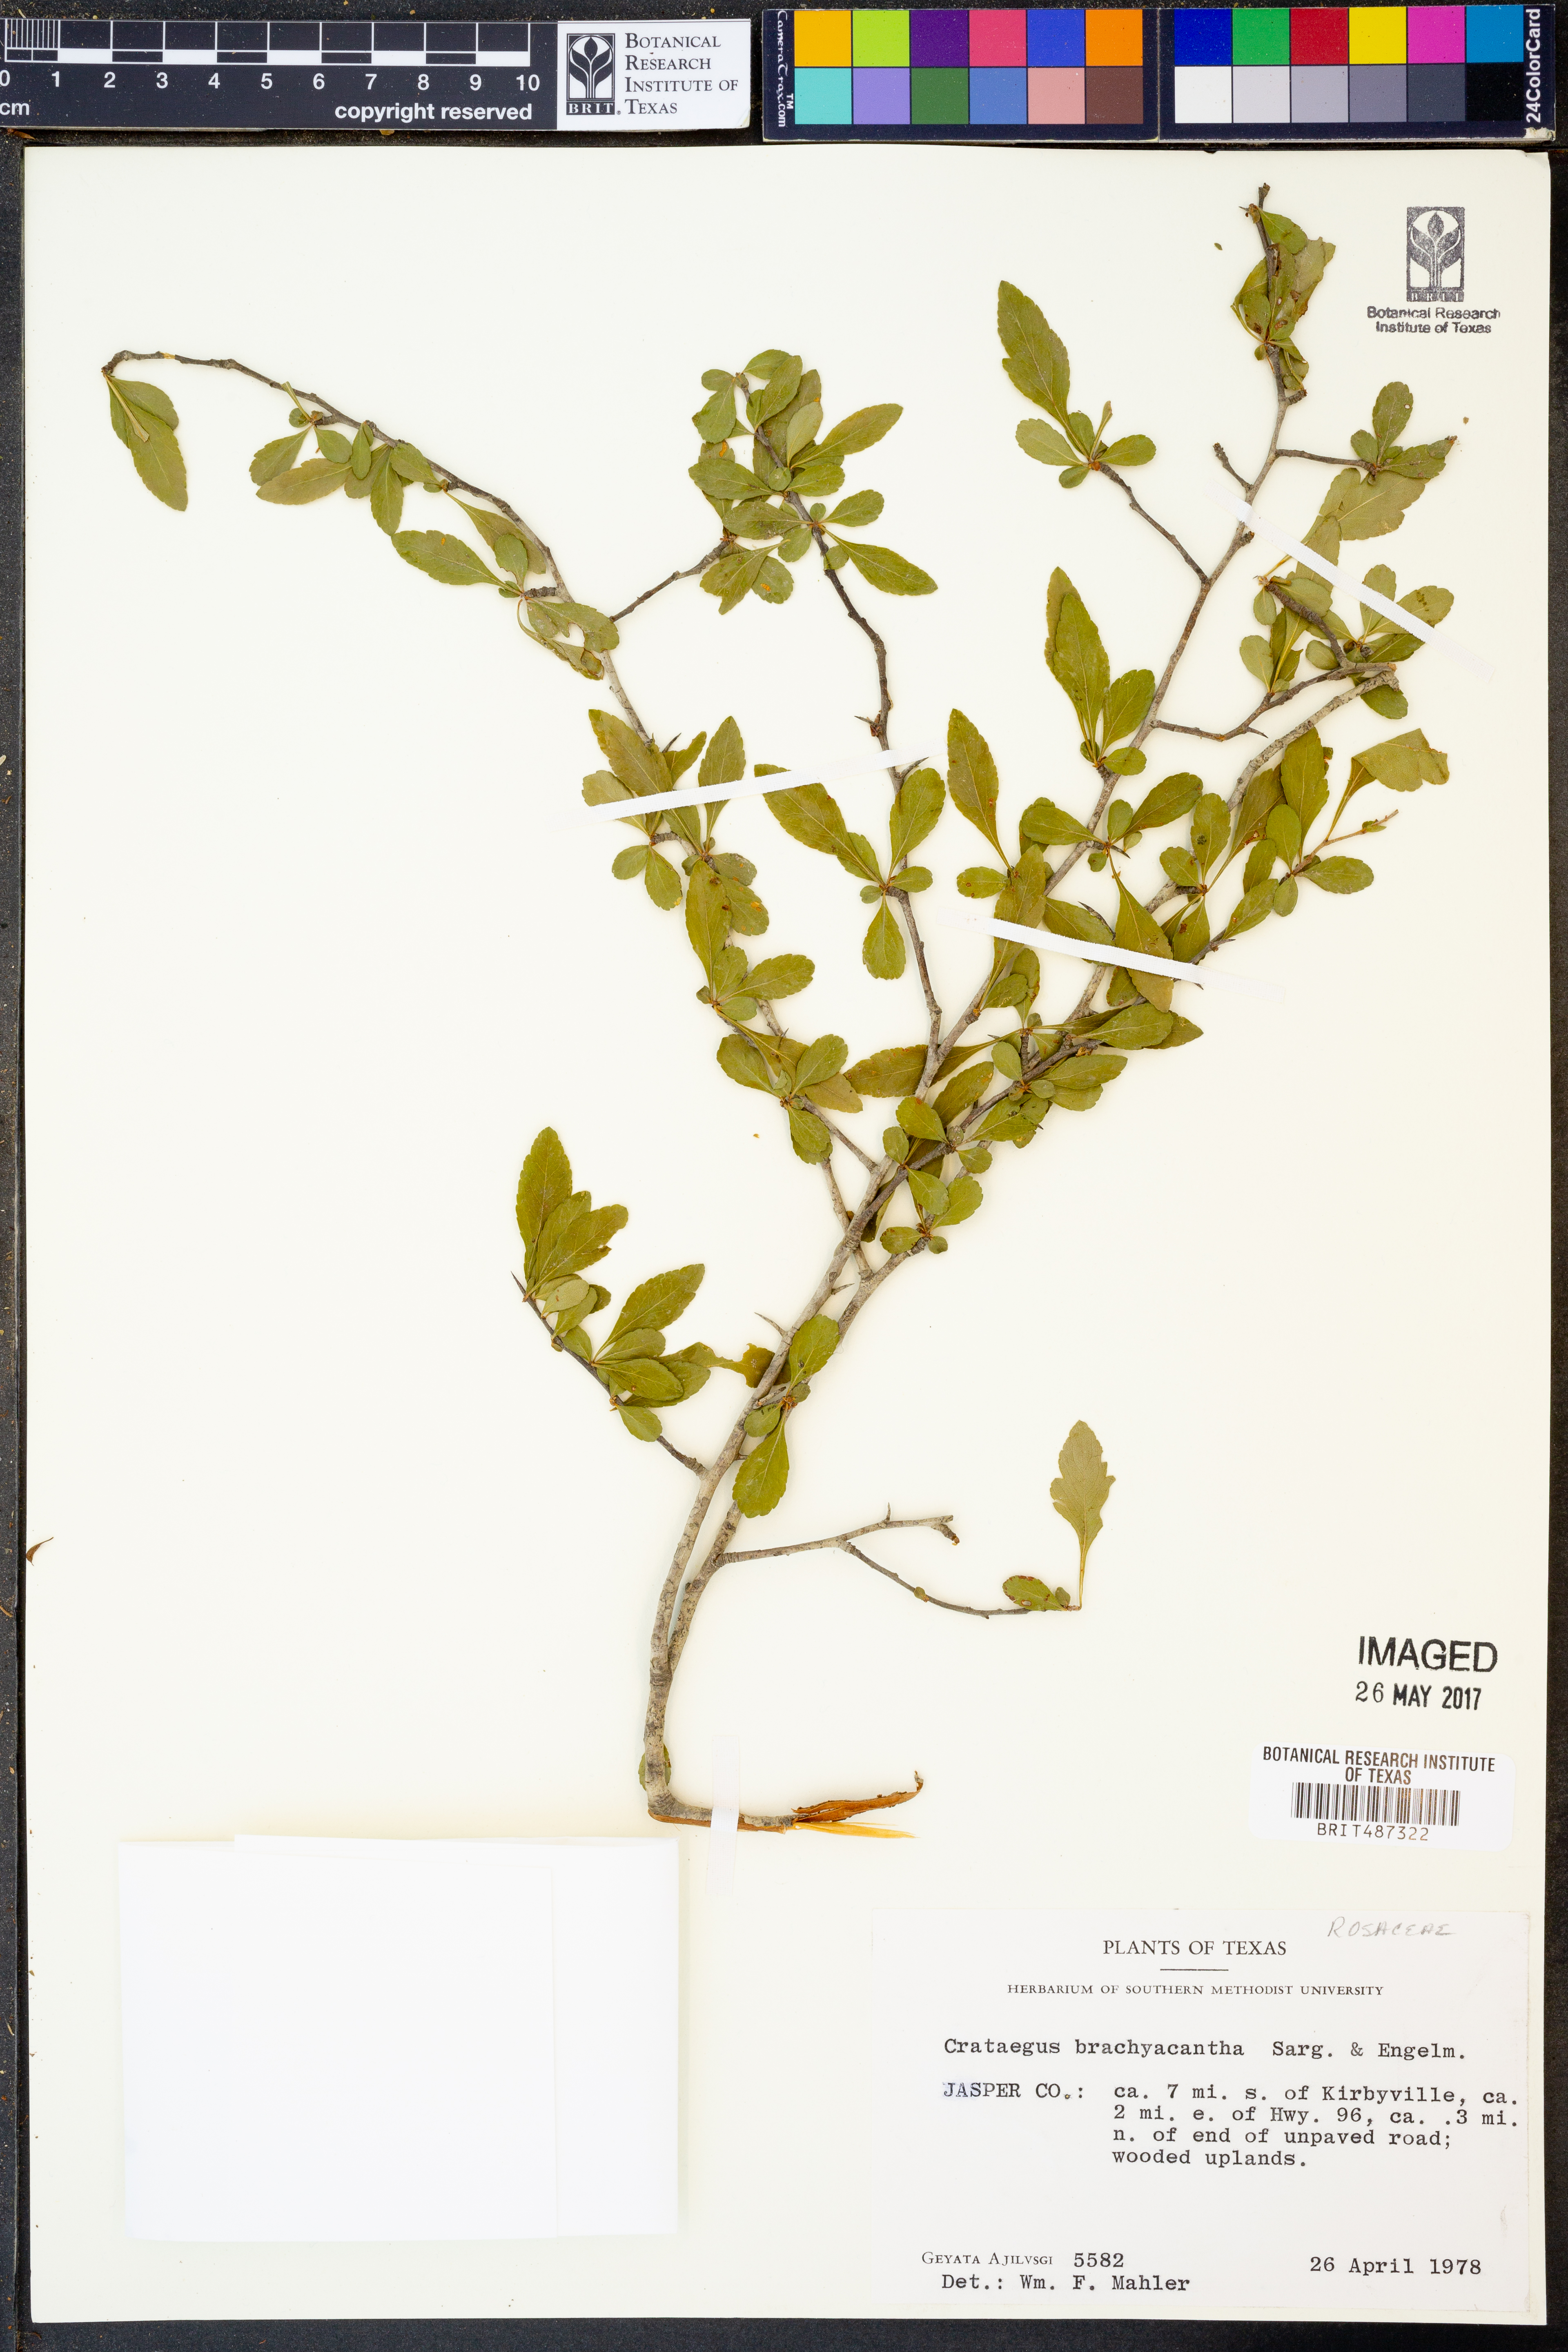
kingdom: Plantae
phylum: Tracheophyta
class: Magnoliopsida
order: Rosales
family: Rosaceae
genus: Crataegus
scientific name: Crataegus brachyacantha
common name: Blueberry-hawthorn
